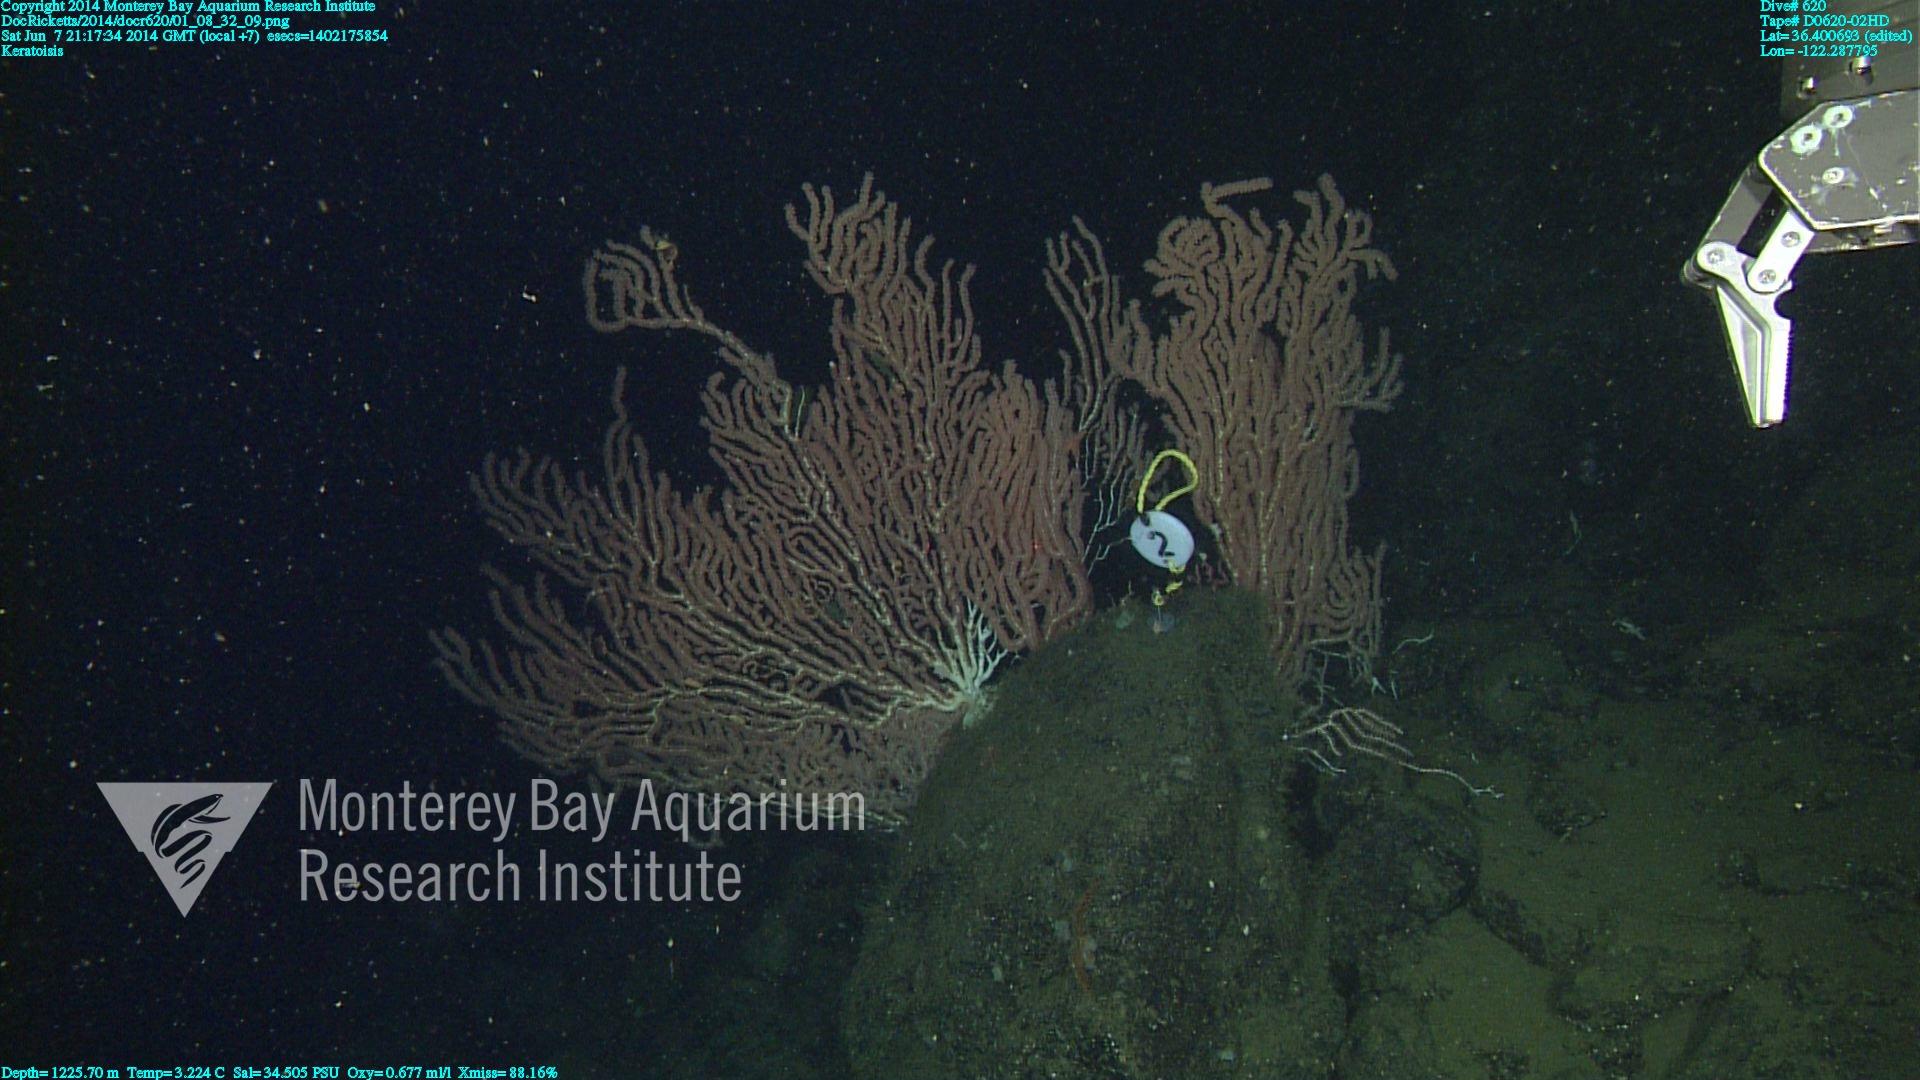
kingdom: Animalia
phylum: Cnidaria
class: Anthozoa
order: Scleralcyonacea
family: Keratoisididae
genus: Keratoisis
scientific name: Keratoisis
